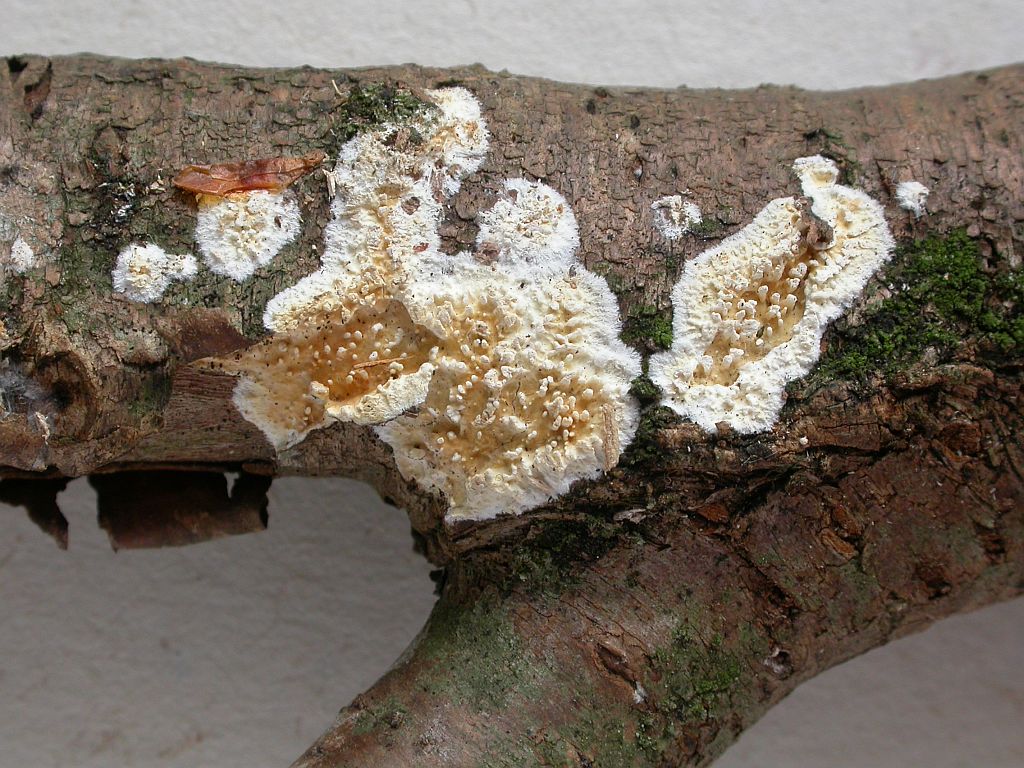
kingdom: Fungi
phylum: Basidiomycota
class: Agaricomycetes
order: Hymenochaetales
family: Schizoporaceae
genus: Xylodon
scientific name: Xylodon radula
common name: grovtandet kalkskind
